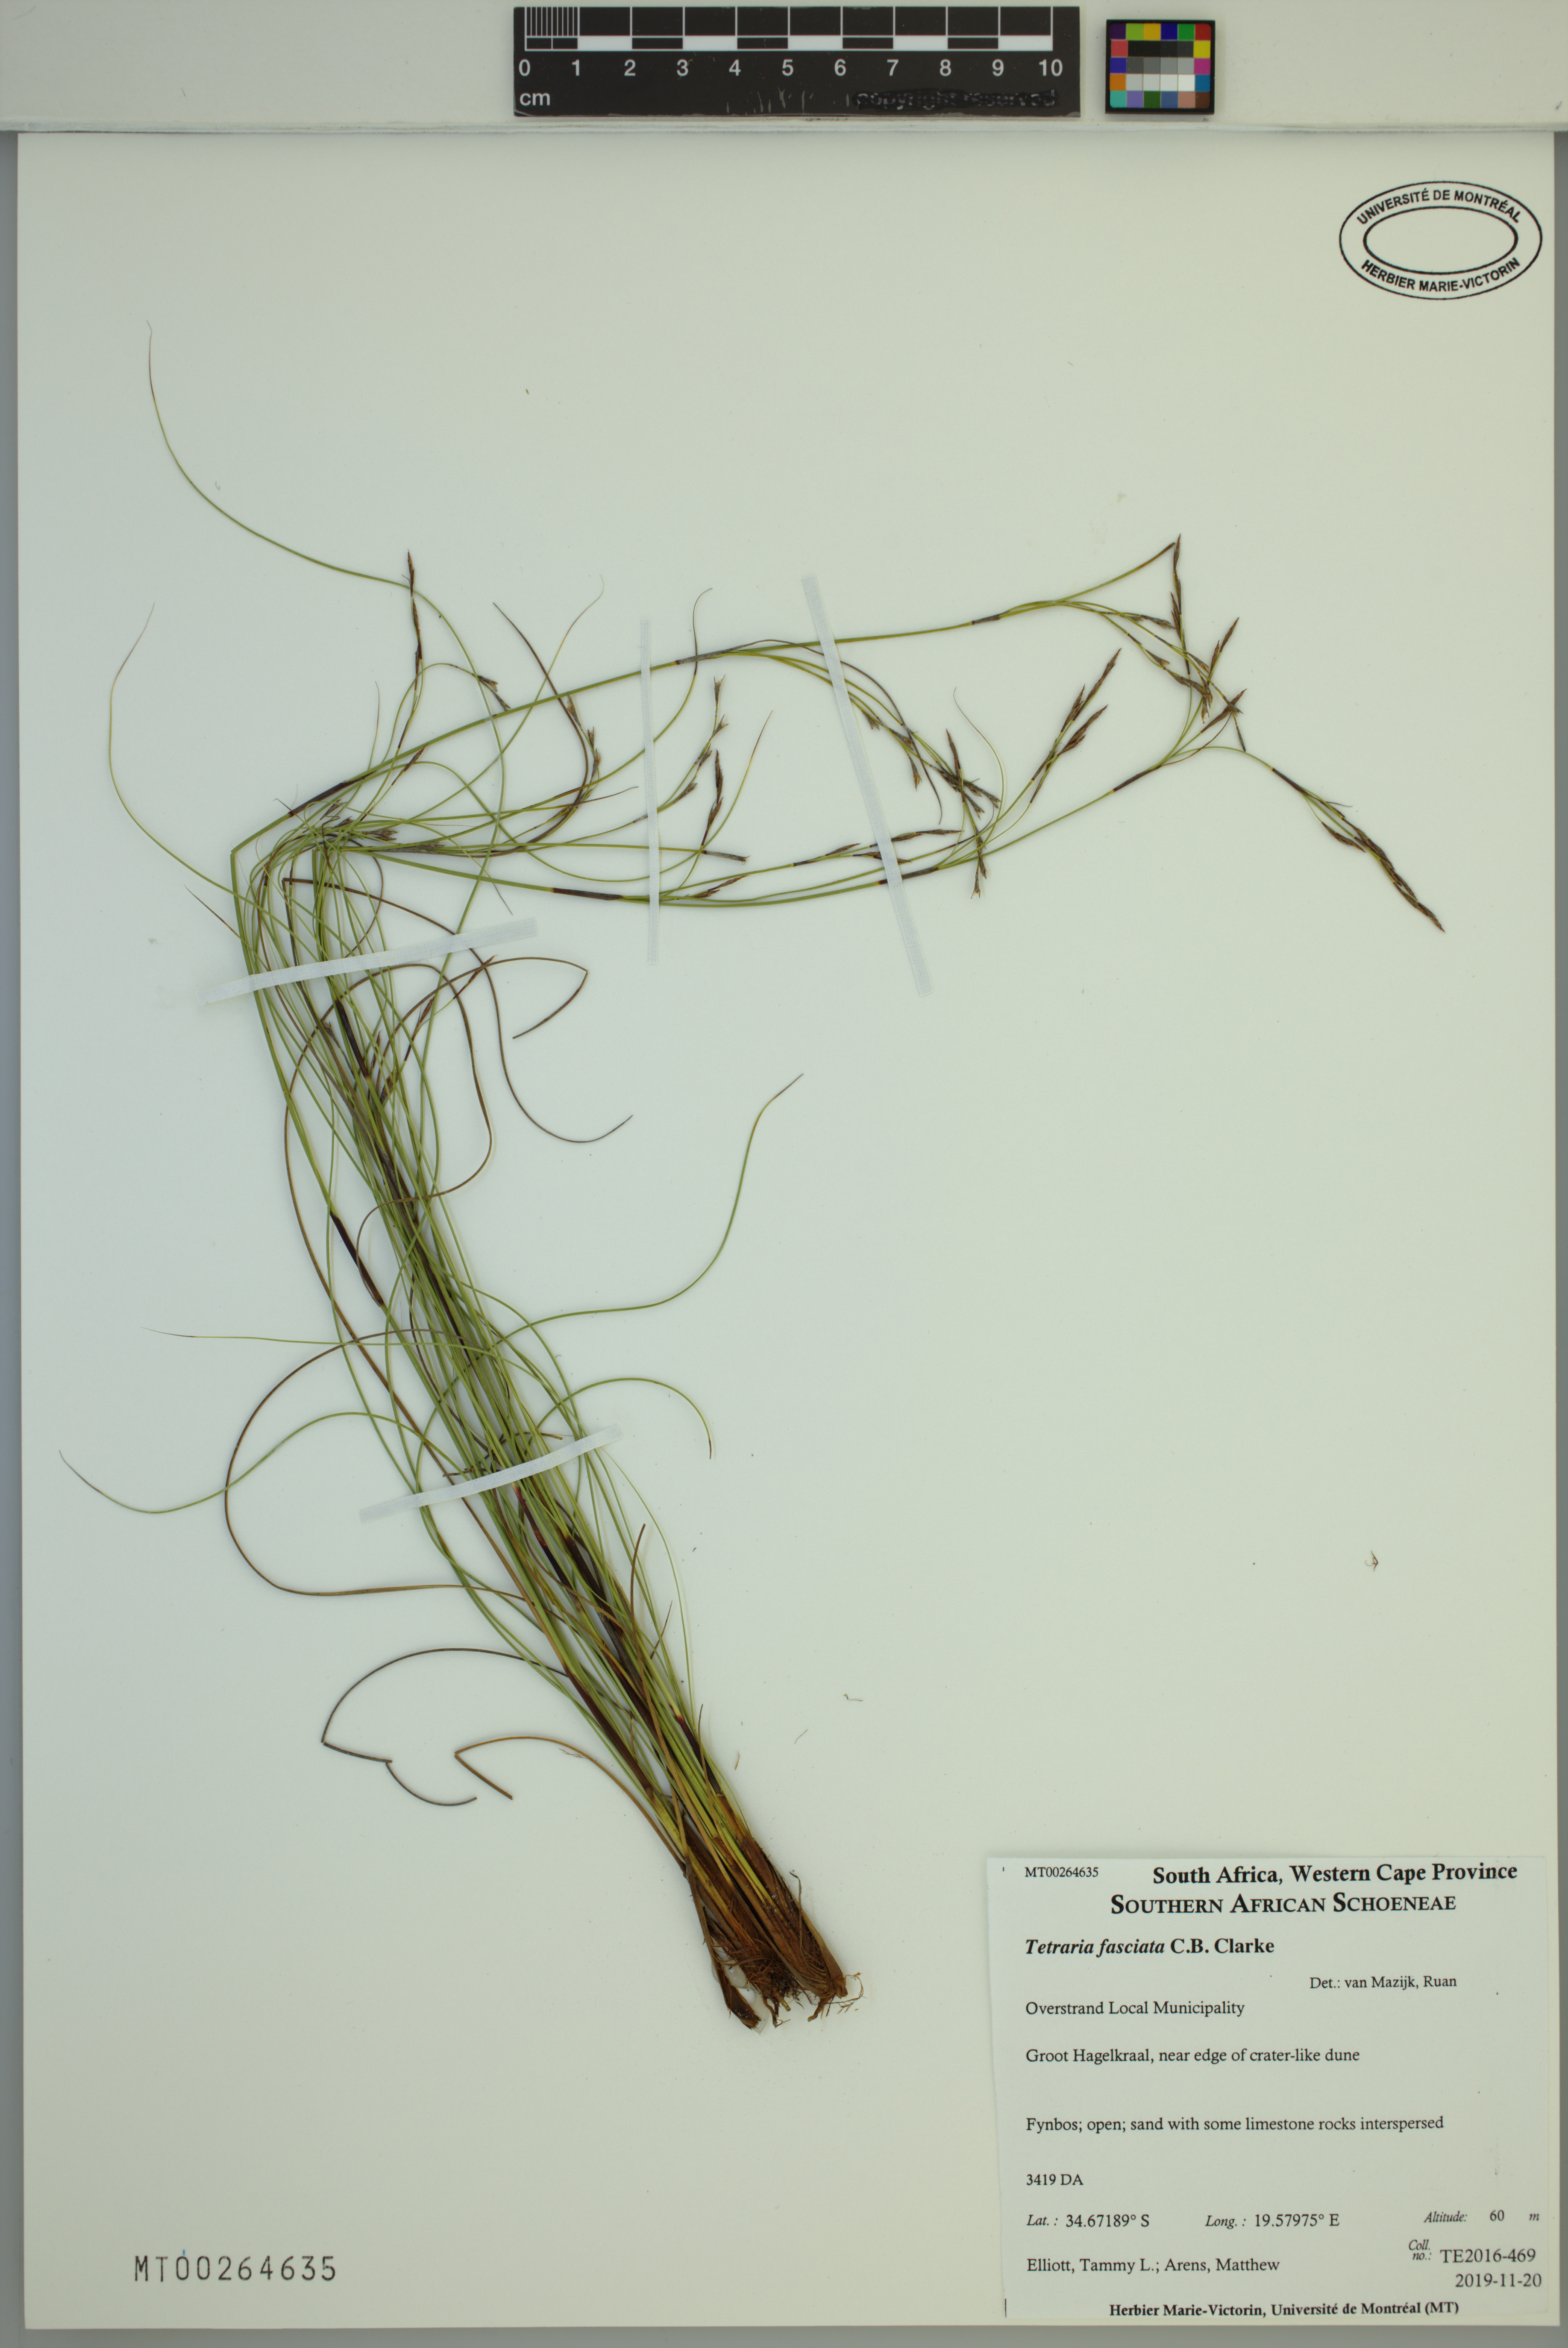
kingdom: Plantae
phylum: Tracheophyta
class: Liliopsida
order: Poales
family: Cyperaceae
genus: Tetraria
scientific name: Tetraria fasciata
